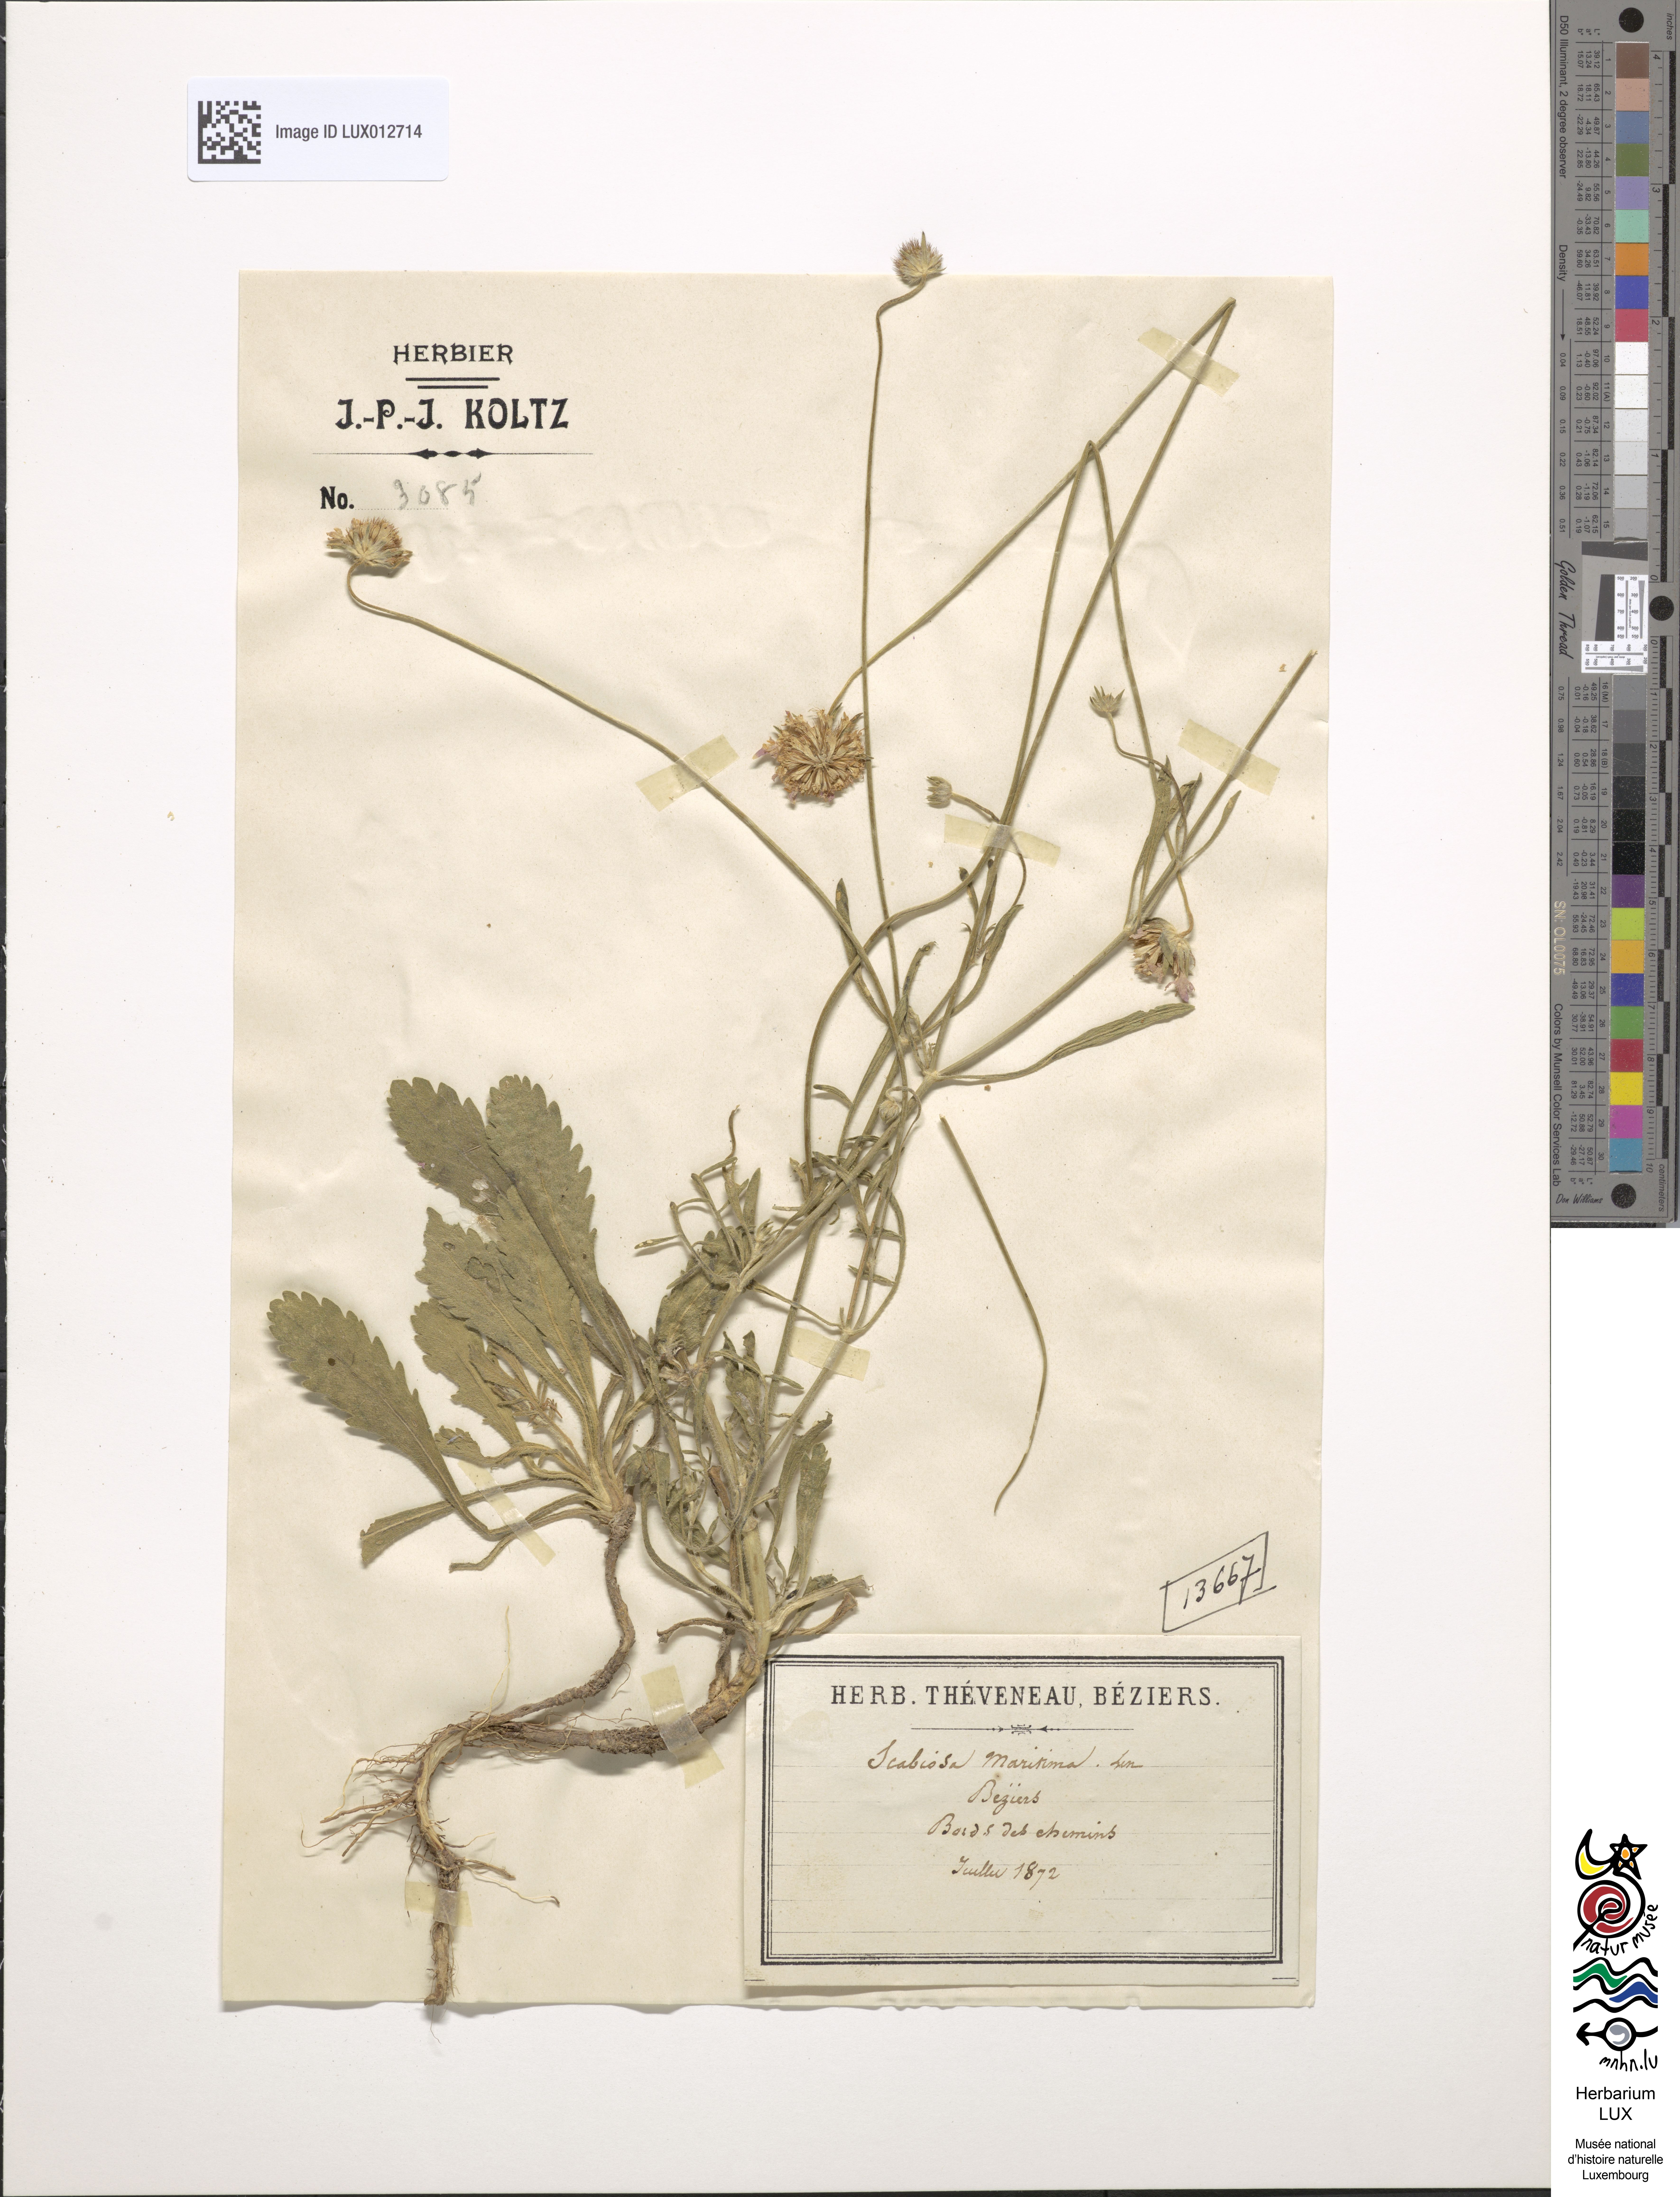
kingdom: Plantae
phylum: Tracheophyta
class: Magnoliopsida
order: Dipsacales
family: Caprifoliaceae
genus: Sixalix
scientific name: Sixalix atropurpurea
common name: Sweet scabious
